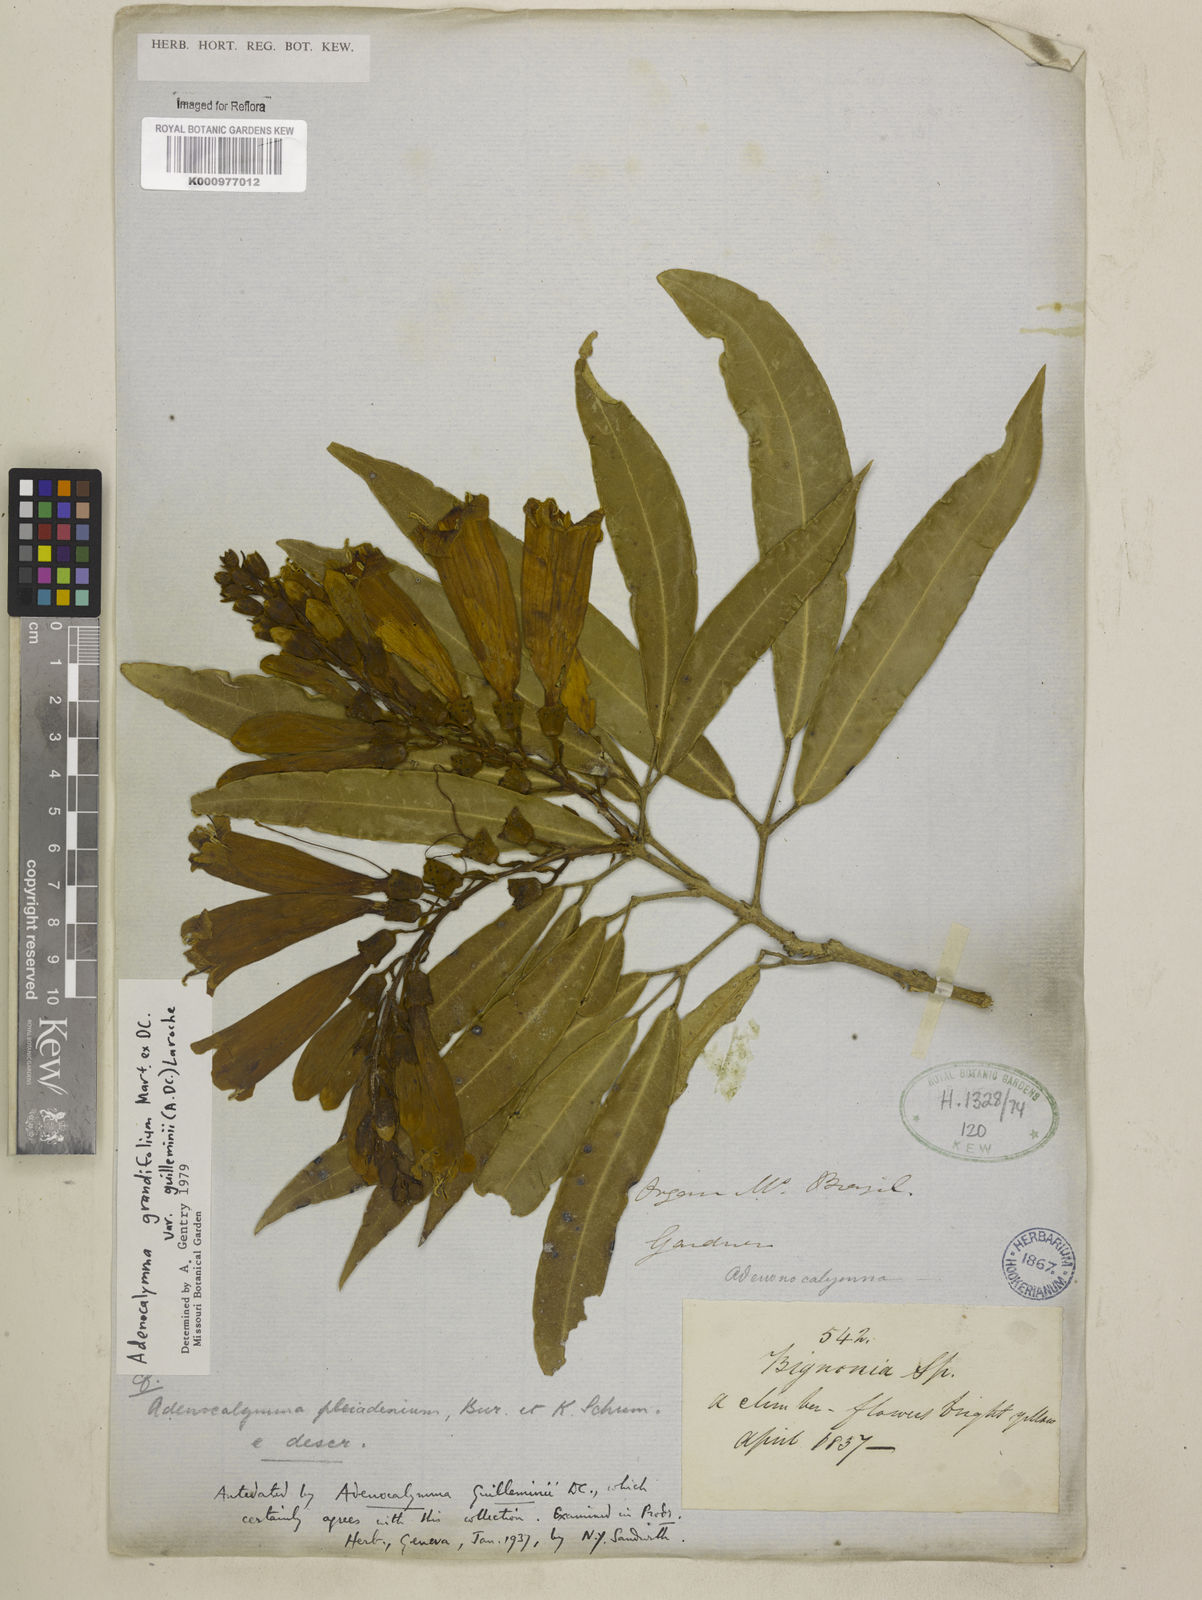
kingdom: Plantae
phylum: Tracheophyta
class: Magnoliopsida
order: Lamiales
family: Bignoniaceae
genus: Adenocalymma
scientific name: Adenocalymma ternatum
